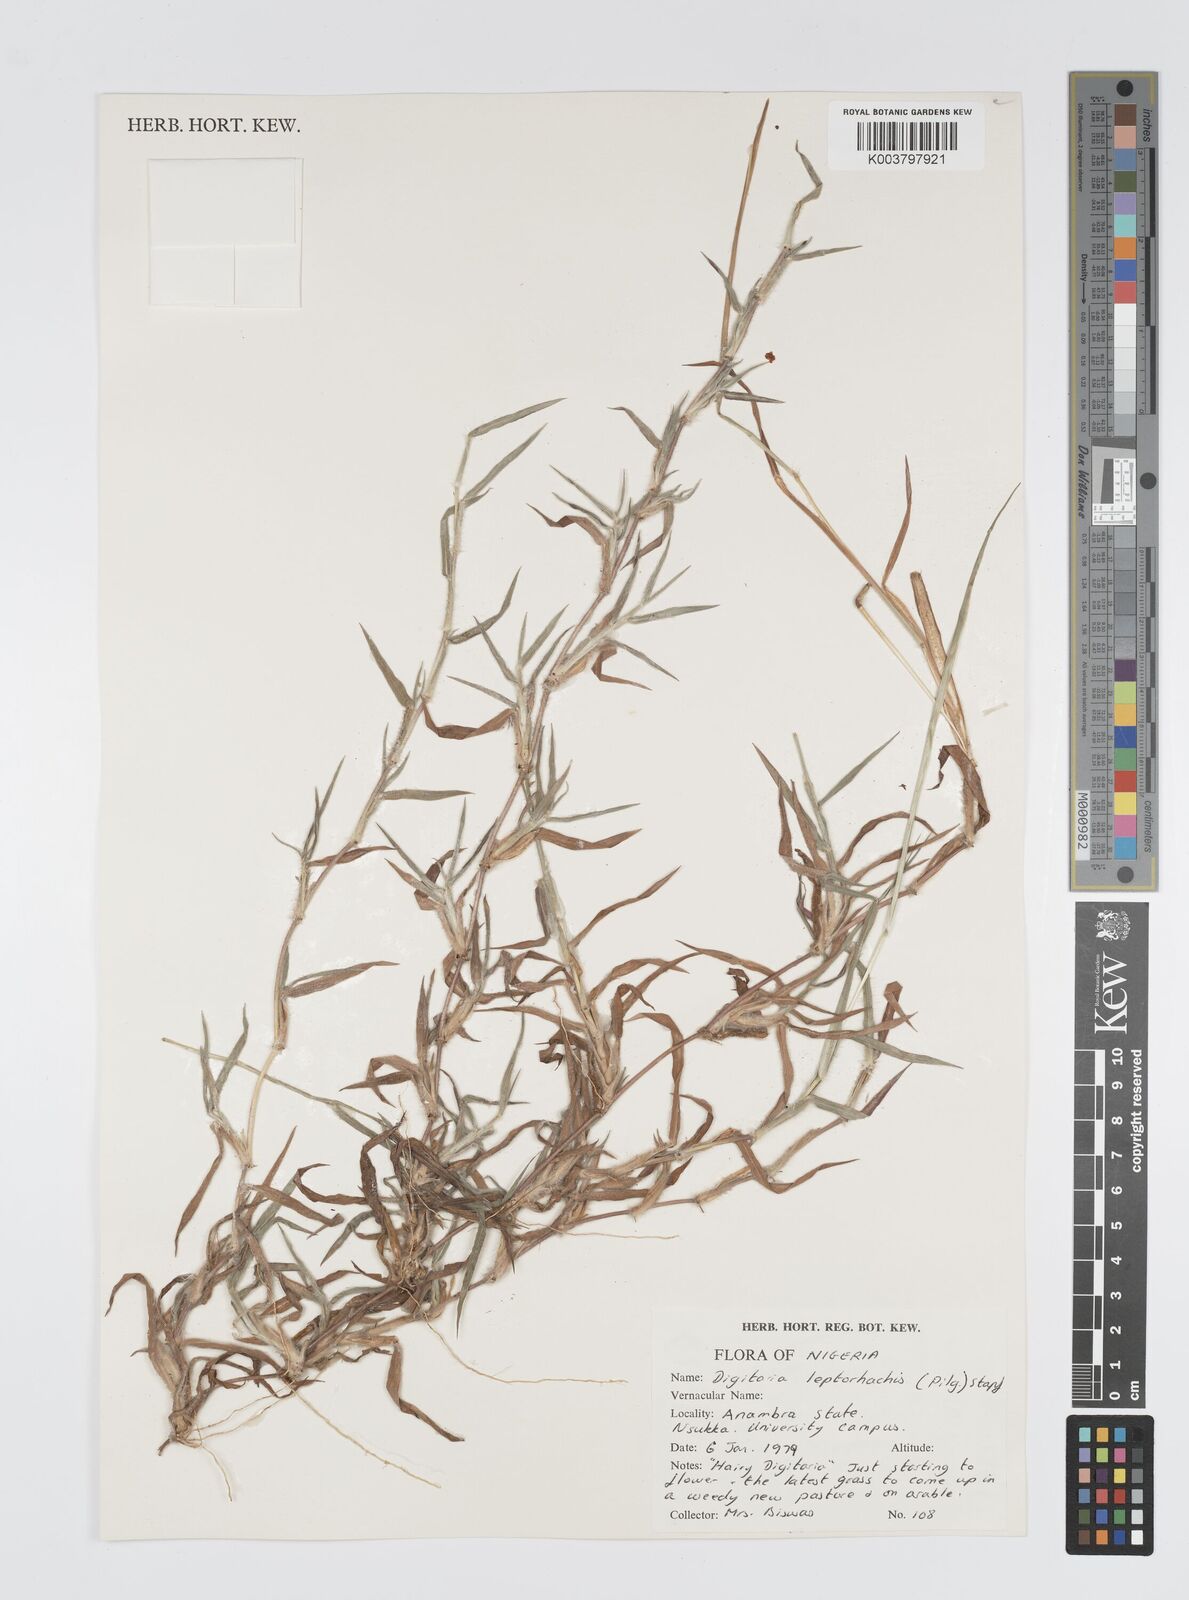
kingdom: Plantae
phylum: Tracheophyta
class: Liliopsida
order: Poales
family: Poaceae
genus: Digitaria
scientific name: Digitaria leptorhachis
